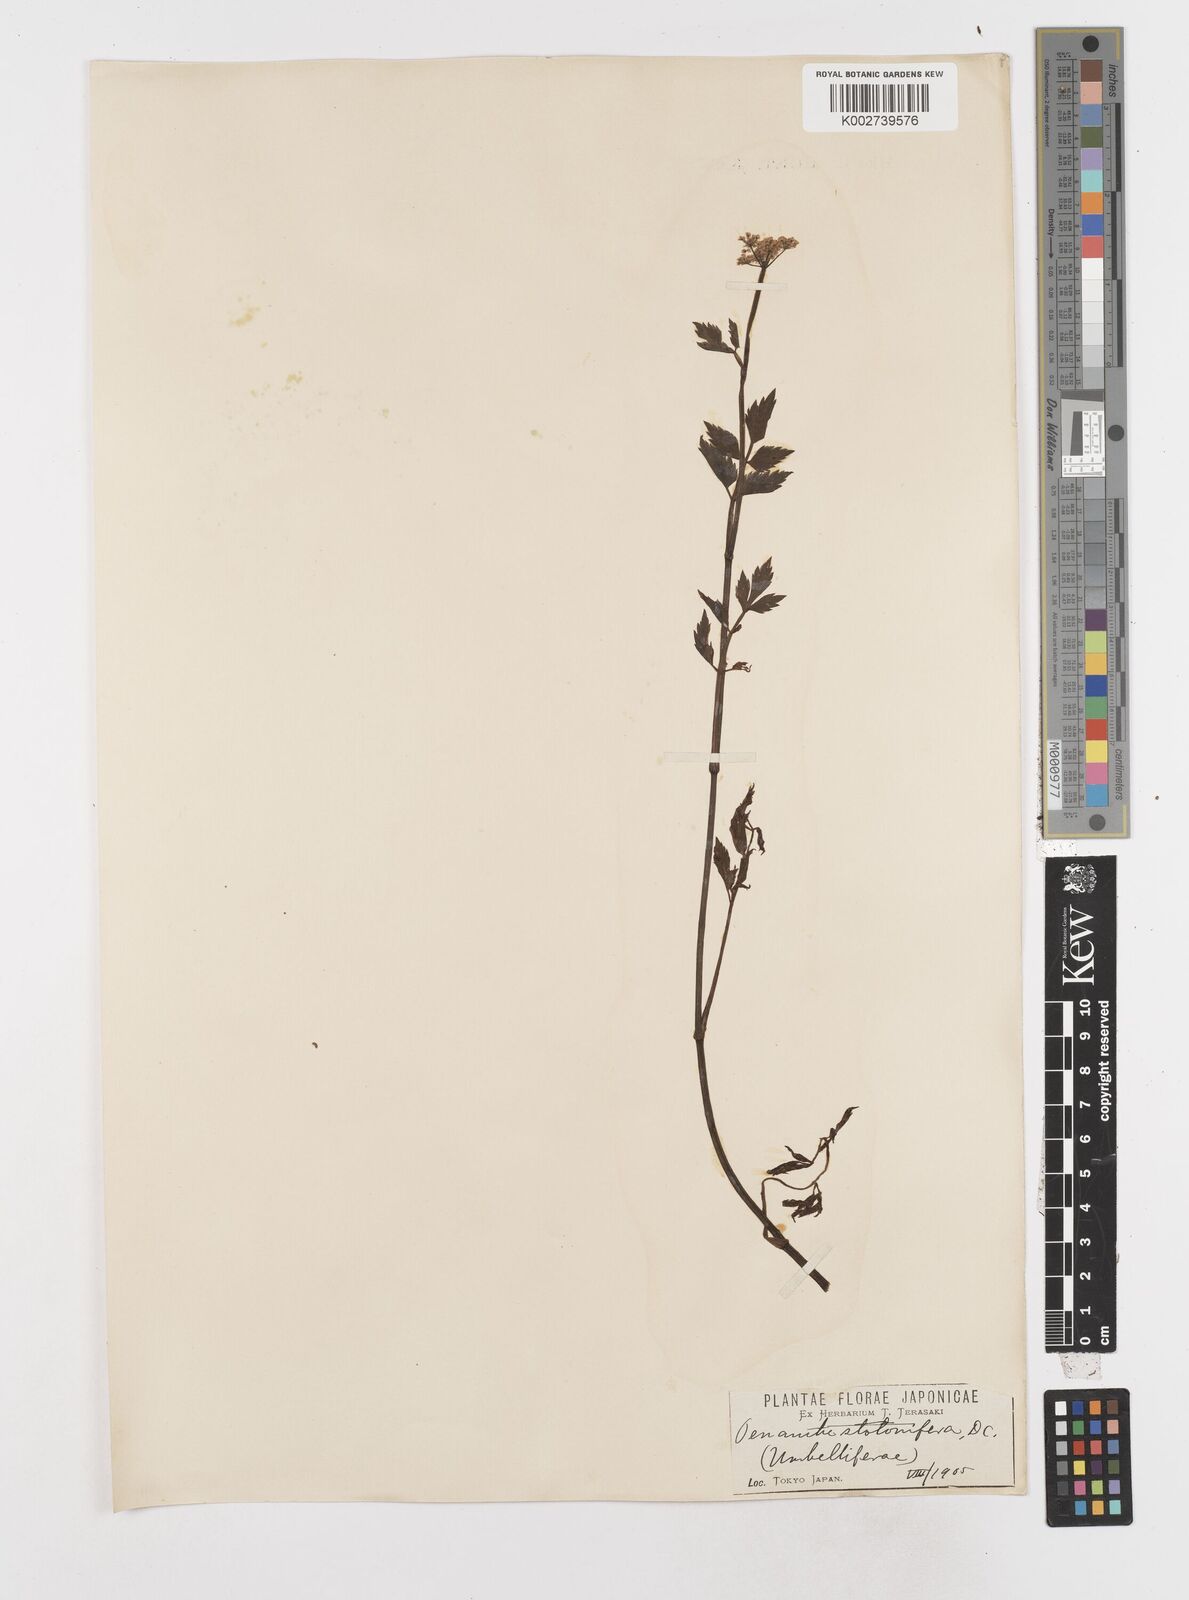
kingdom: Plantae
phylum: Tracheophyta
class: Magnoliopsida
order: Apiales
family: Apiaceae
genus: Oenanthe
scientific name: Oenanthe javanica
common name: Java water-dropwort
